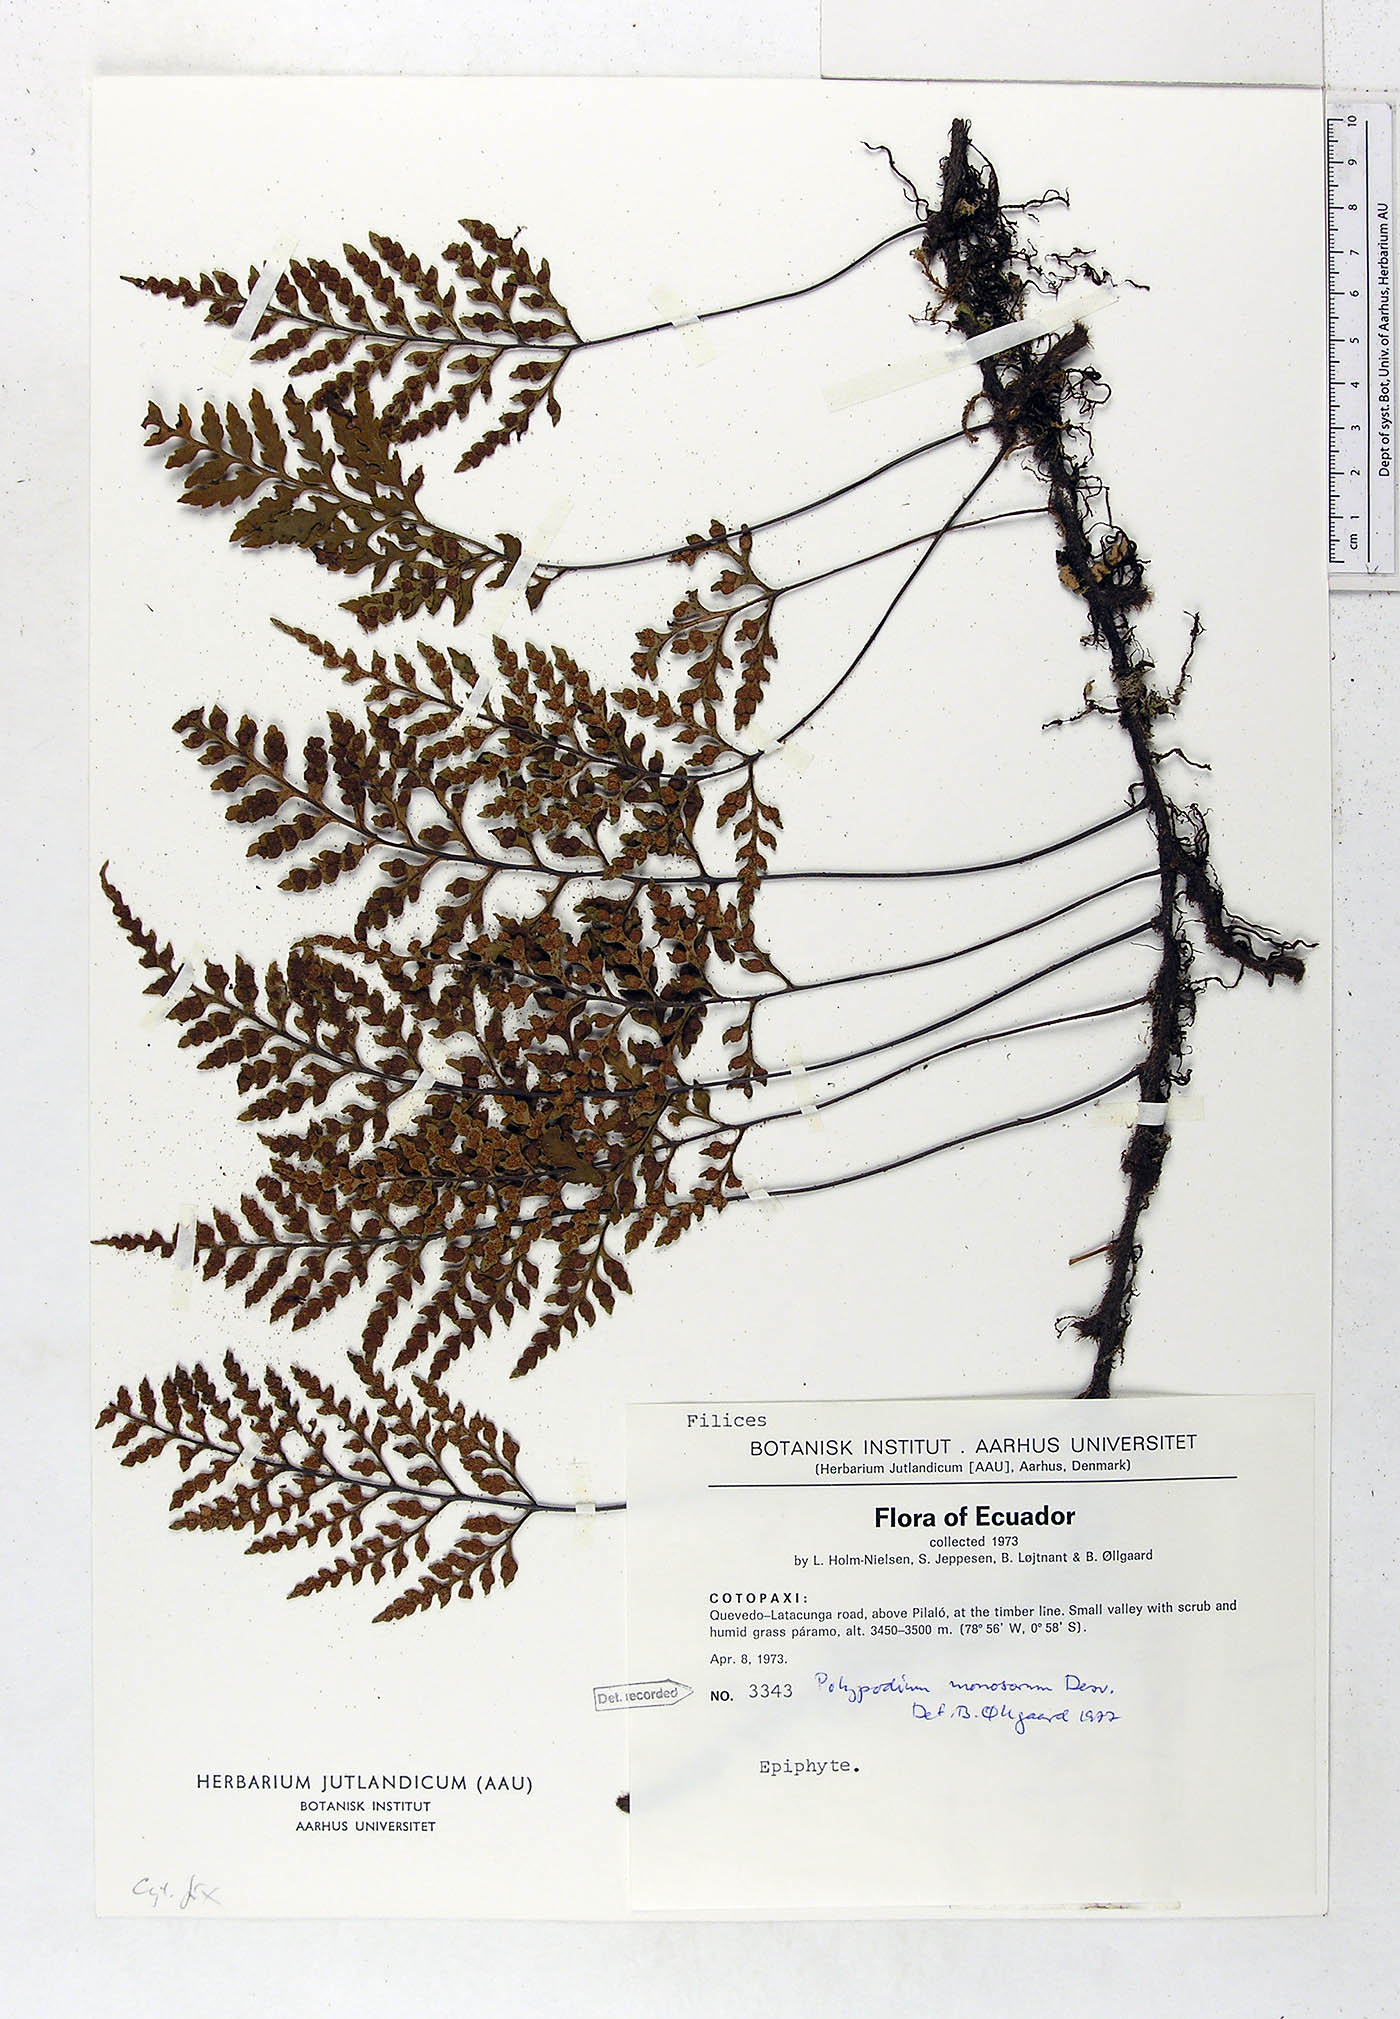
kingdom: Plantae
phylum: Tracheophyta
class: Polypodiopsida
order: Polypodiales
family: Polypodiaceae
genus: Pleopeltis
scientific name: Pleopeltis monosora
